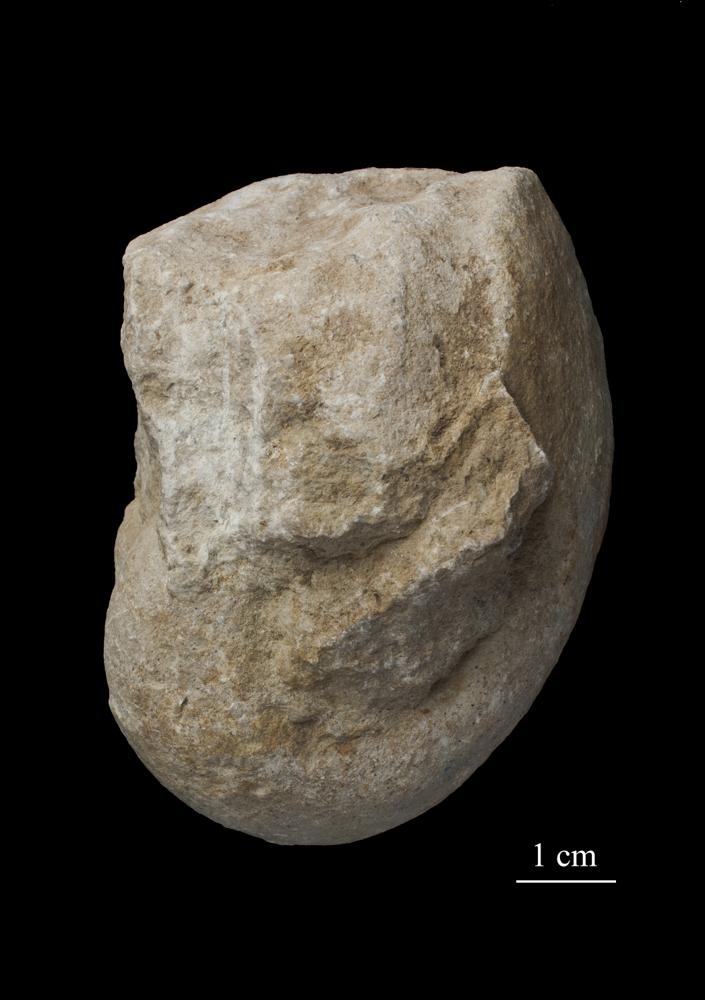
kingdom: Animalia
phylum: Mollusca
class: Gastropoda
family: Bellerophontidae
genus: Bellerophon
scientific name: Bellerophon
